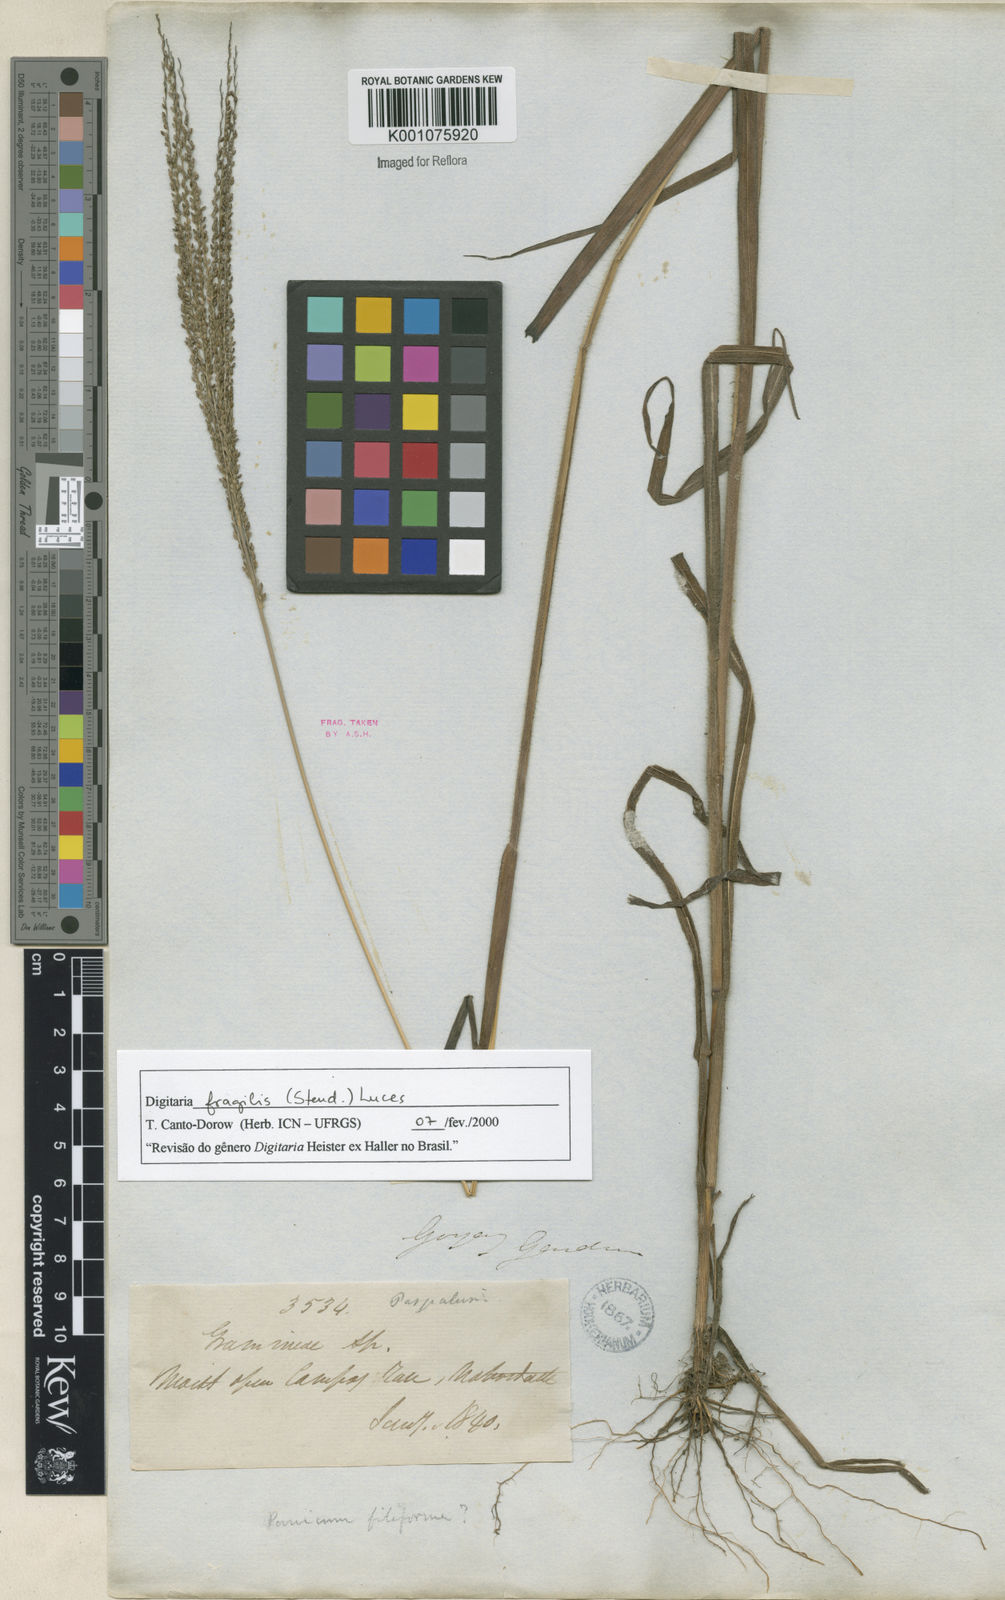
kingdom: Plantae
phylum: Tracheophyta
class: Liliopsida
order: Poales
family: Poaceae
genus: Digitaria
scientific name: Digitaria fragilis
